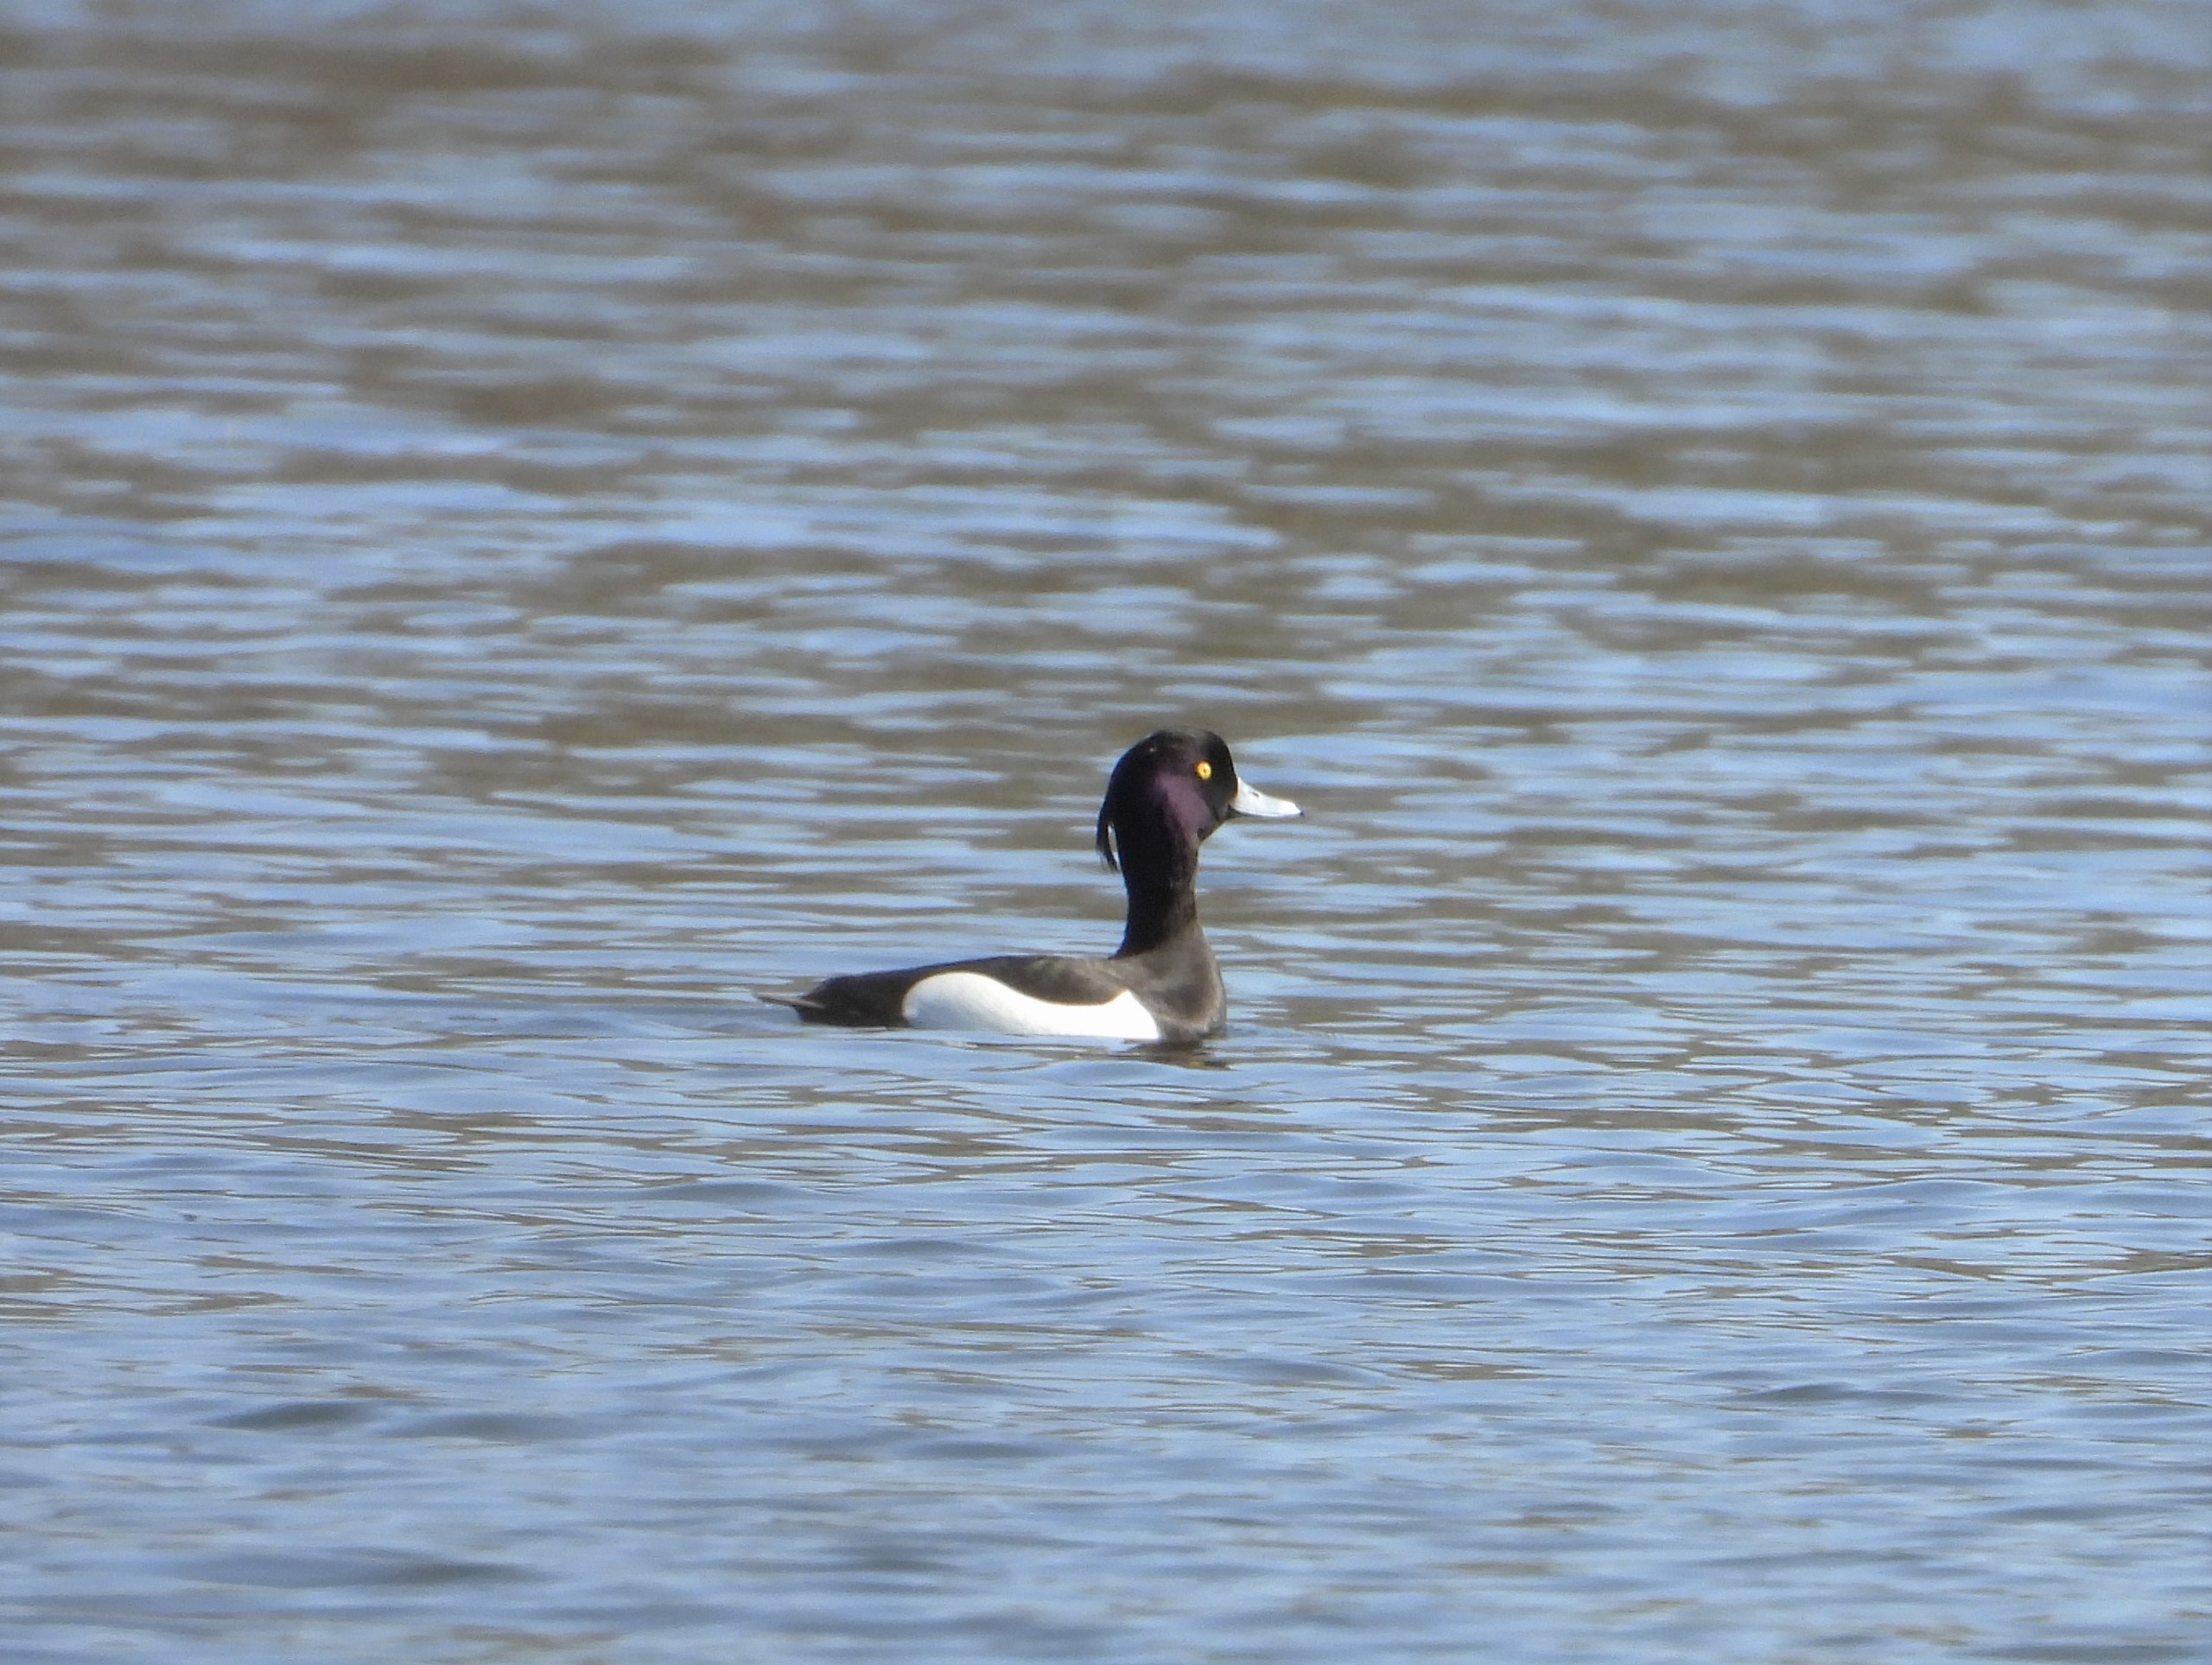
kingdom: Animalia
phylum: Chordata
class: Aves
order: Anseriformes
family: Anatidae
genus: Aythya
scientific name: Aythya fuligula
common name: Troldand
